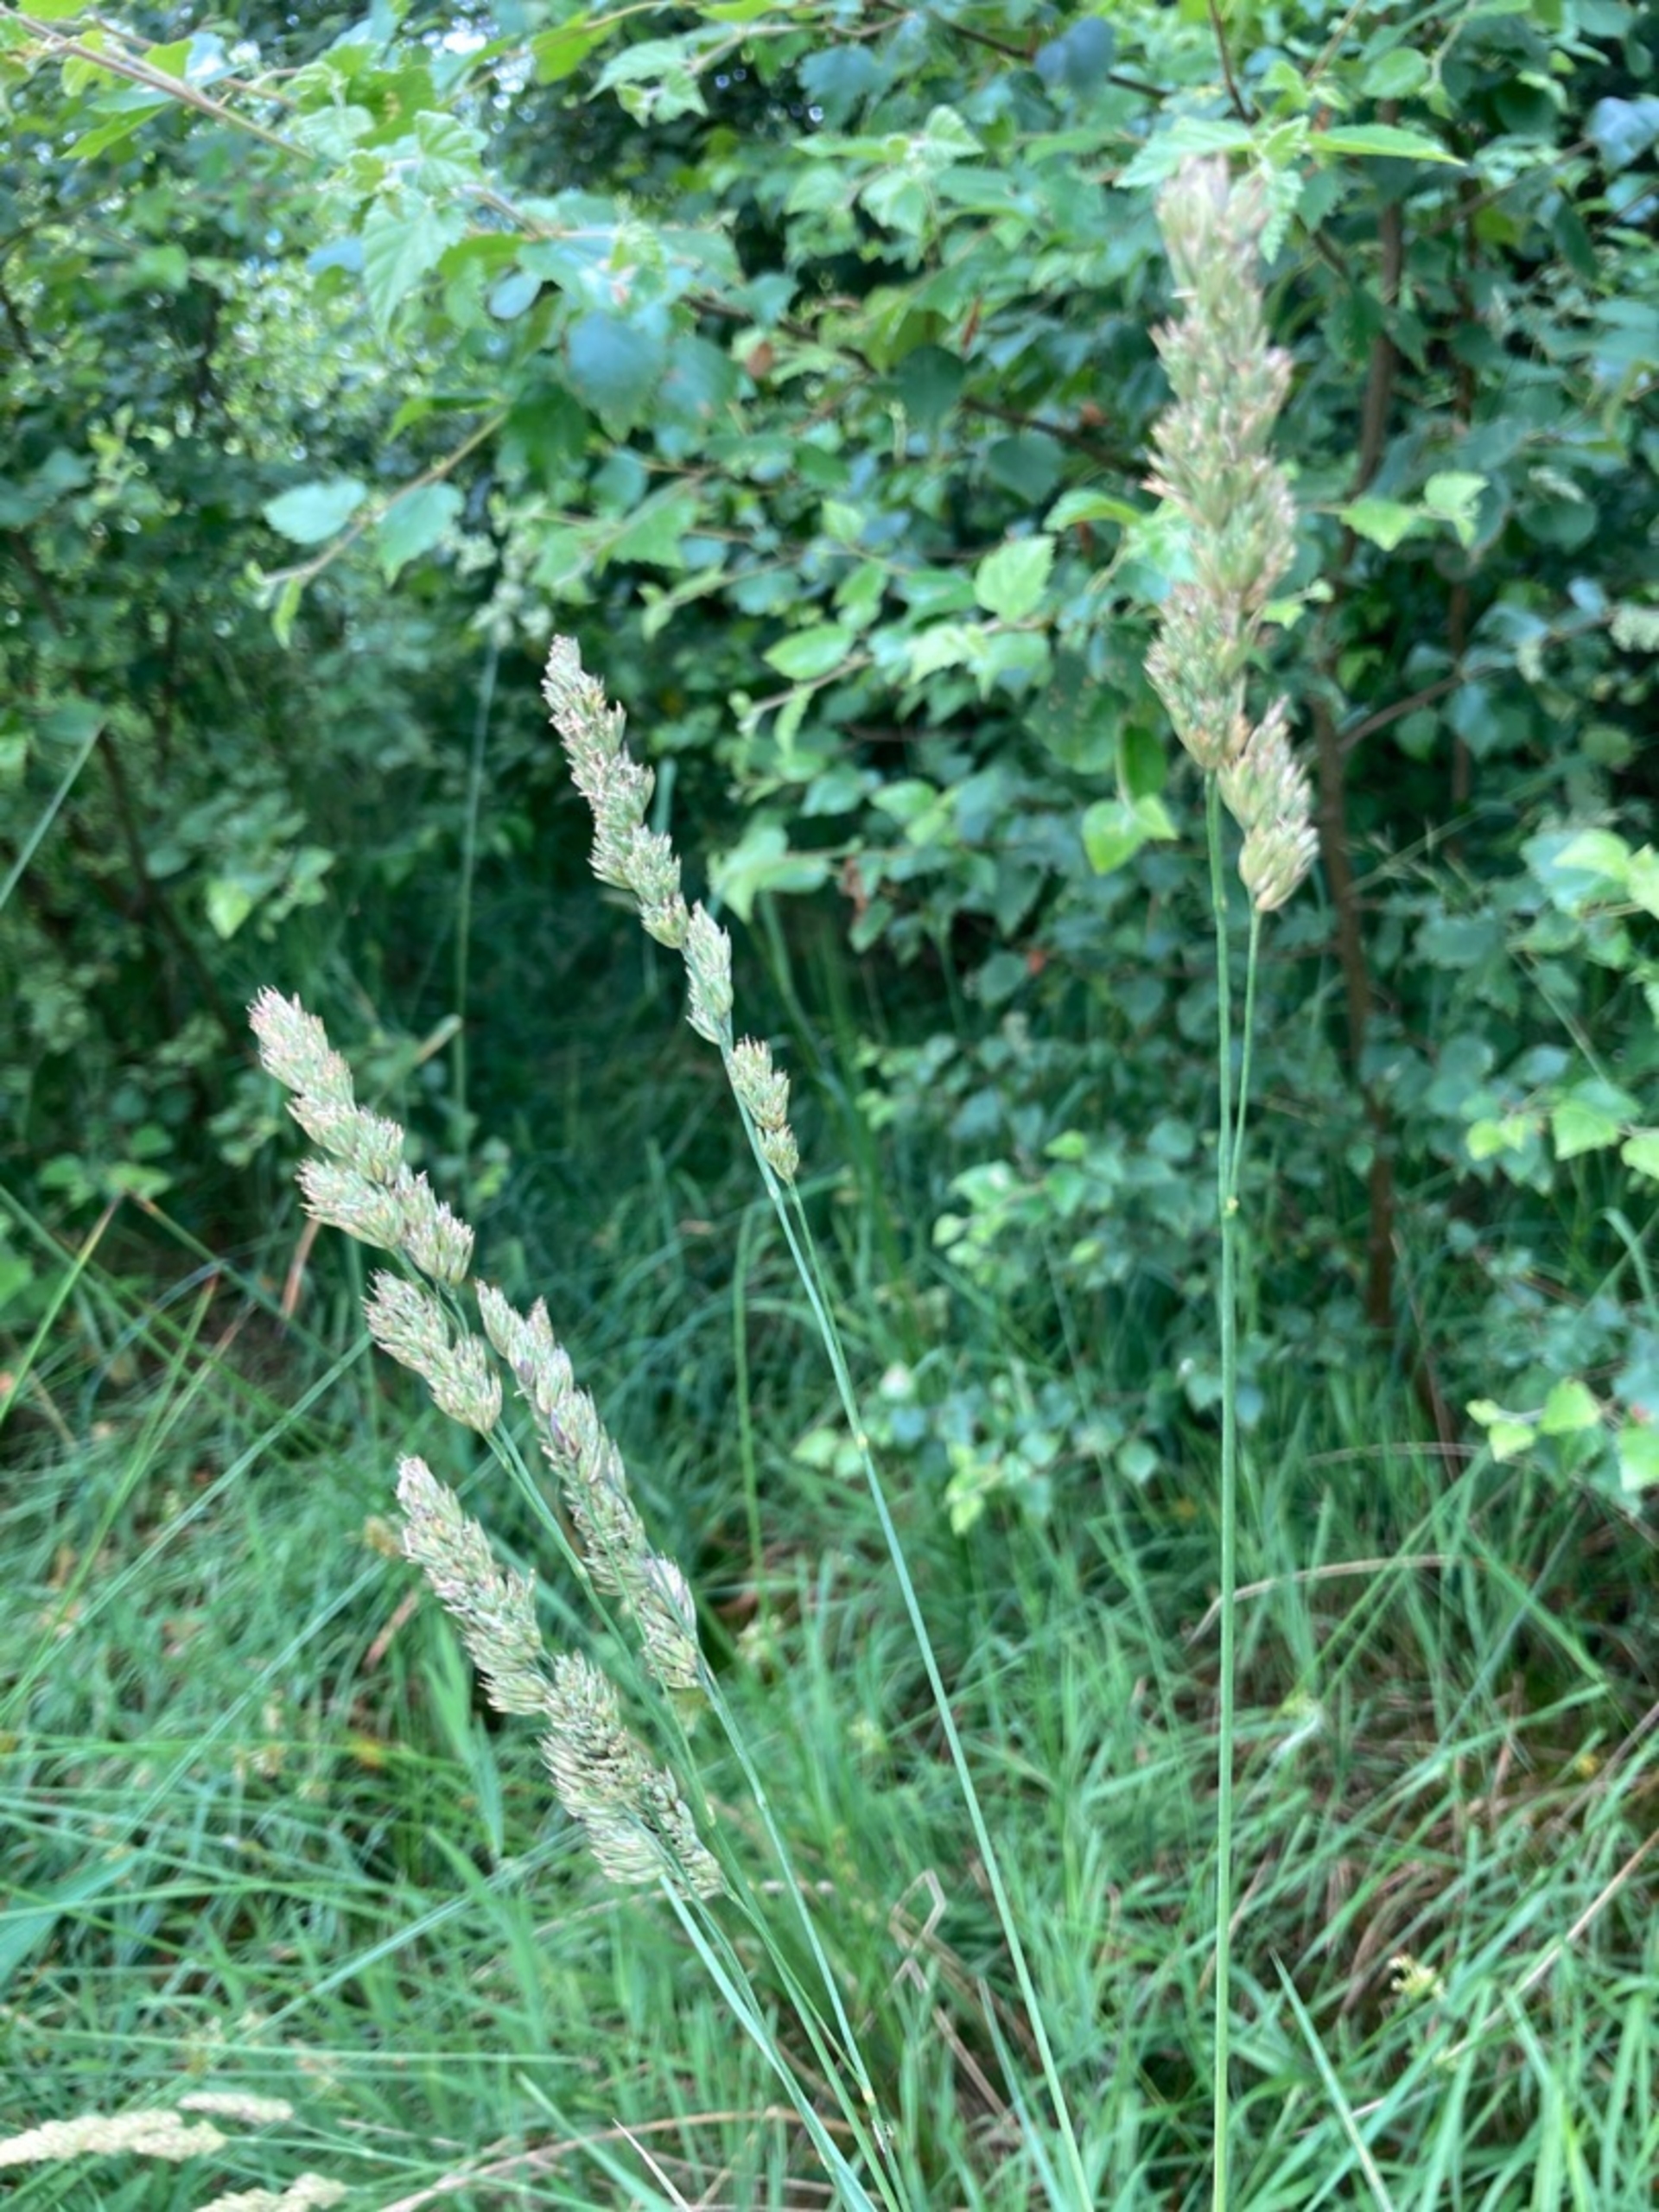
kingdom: Plantae
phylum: Tracheophyta
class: Liliopsida
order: Poales
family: Poaceae
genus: Dactylis
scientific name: Dactylis glomerata
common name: Almindelig hundegræs
